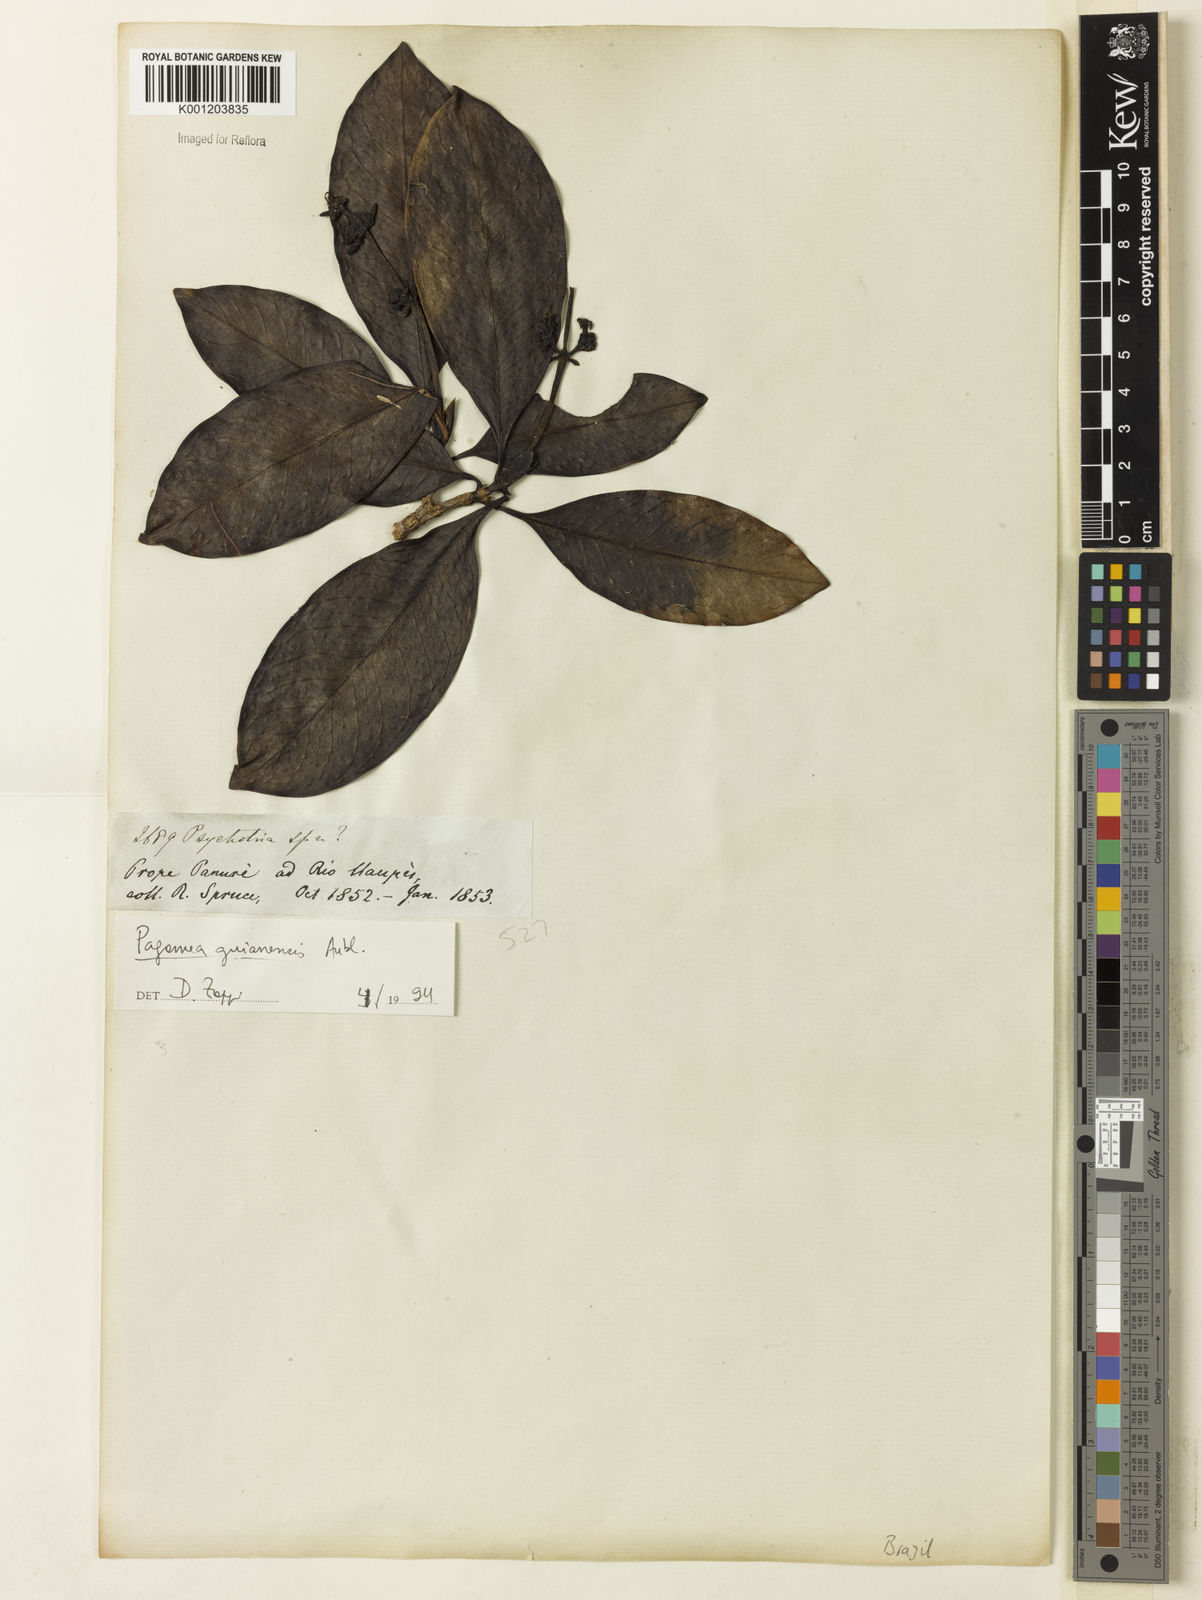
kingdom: Plantae
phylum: Tracheophyta
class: Magnoliopsida
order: Gentianales
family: Rubiaceae
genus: Pagamea
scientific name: Pagamea guianensis
